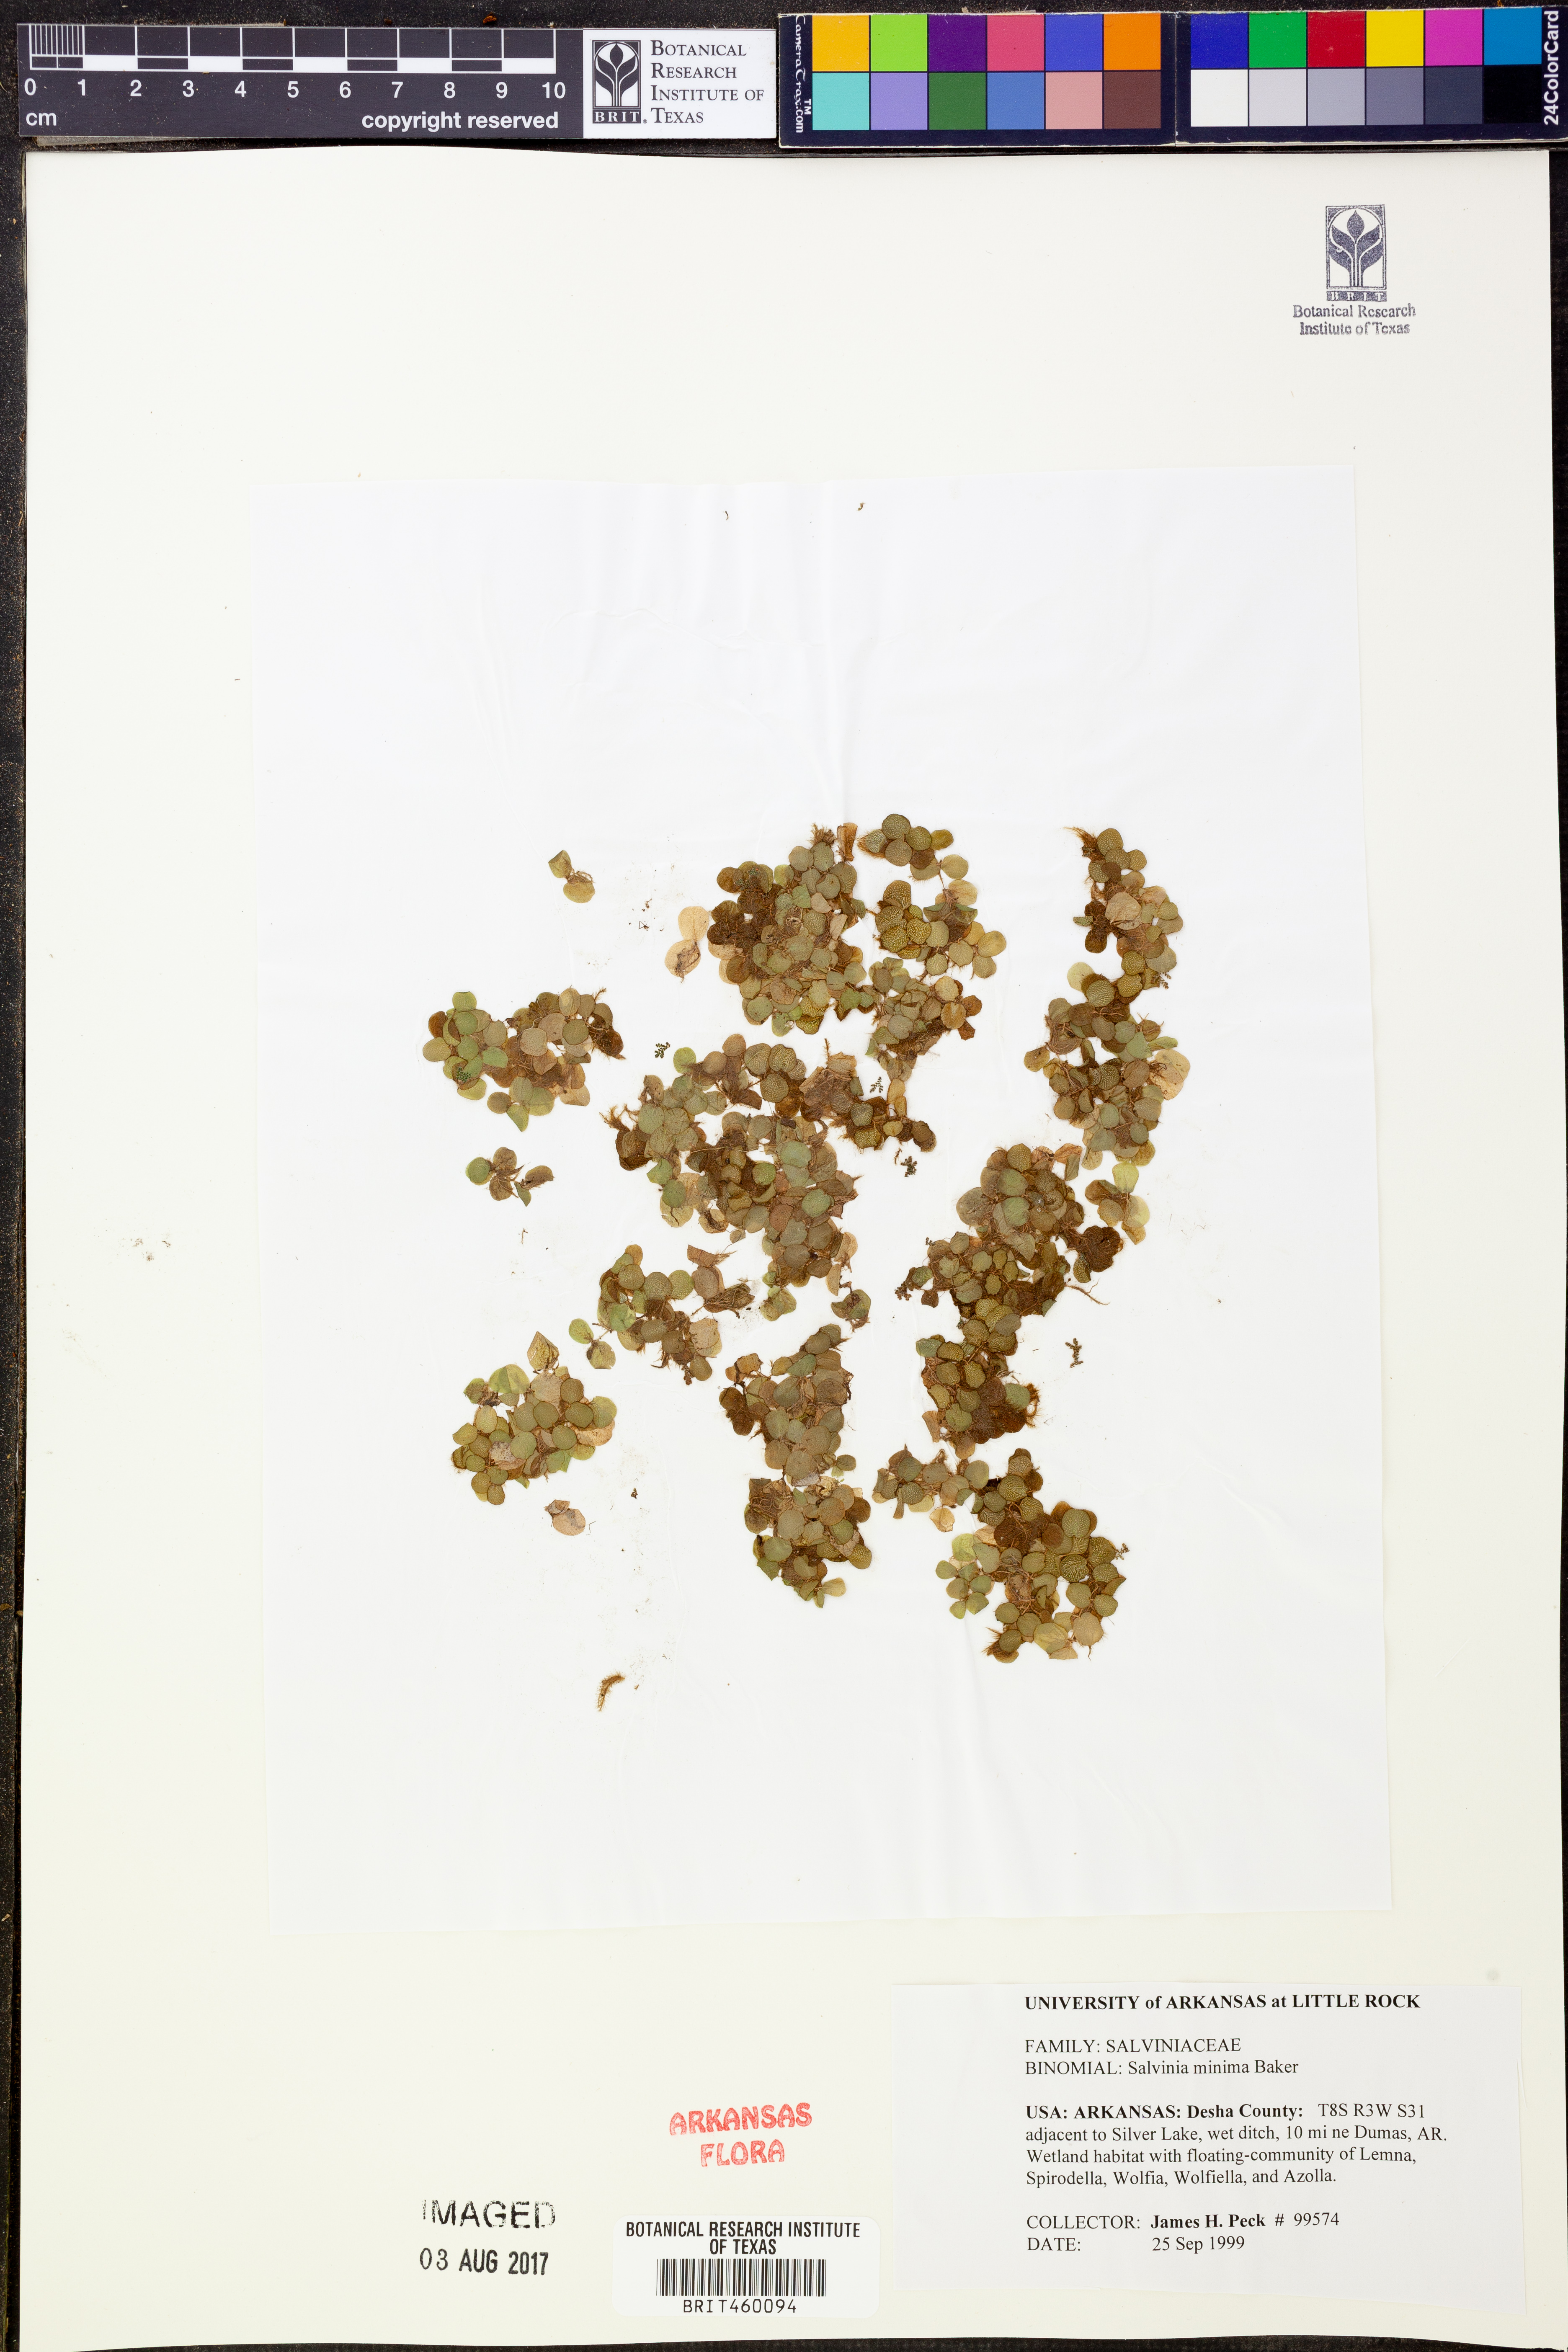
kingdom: Plantae
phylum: Tracheophyta
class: Polypodiopsida
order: Salviniales
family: Salviniaceae
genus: Salvinia
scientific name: Salvinia minima
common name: Water spangles
